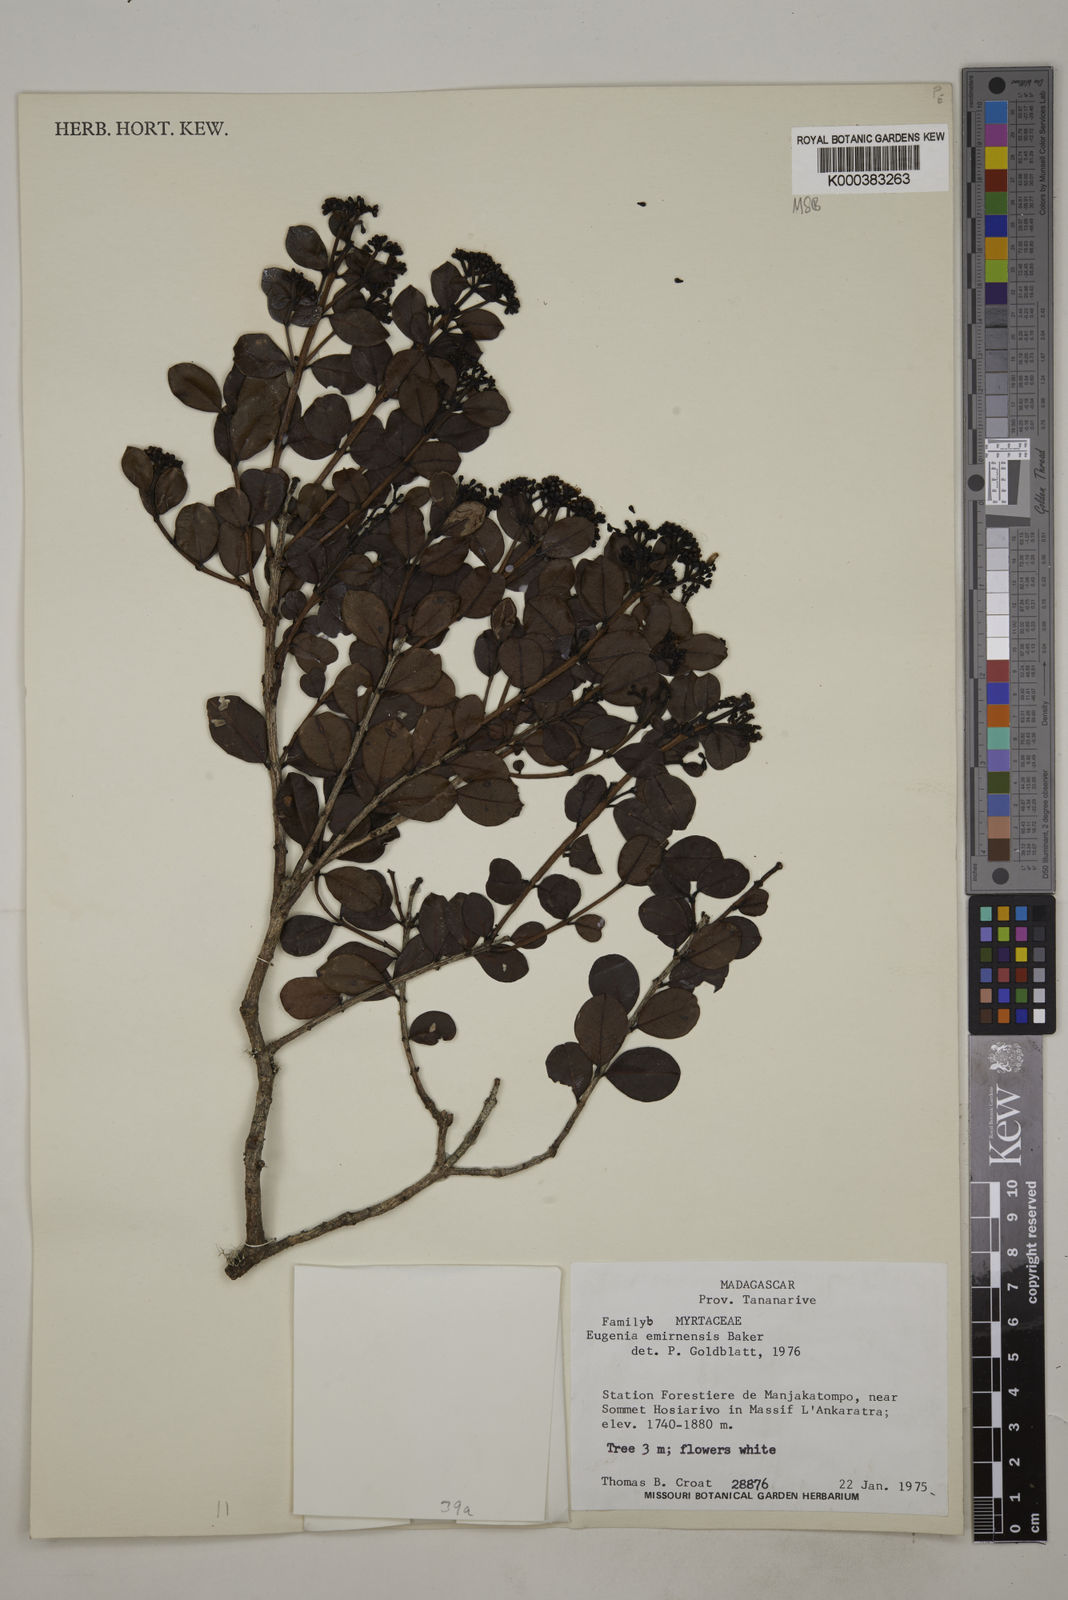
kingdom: Plantae
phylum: Tracheophyta
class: Magnoliopsida
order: Myrtales
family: Myrtaceae
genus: Syzygium
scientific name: Syzygium emirnense
